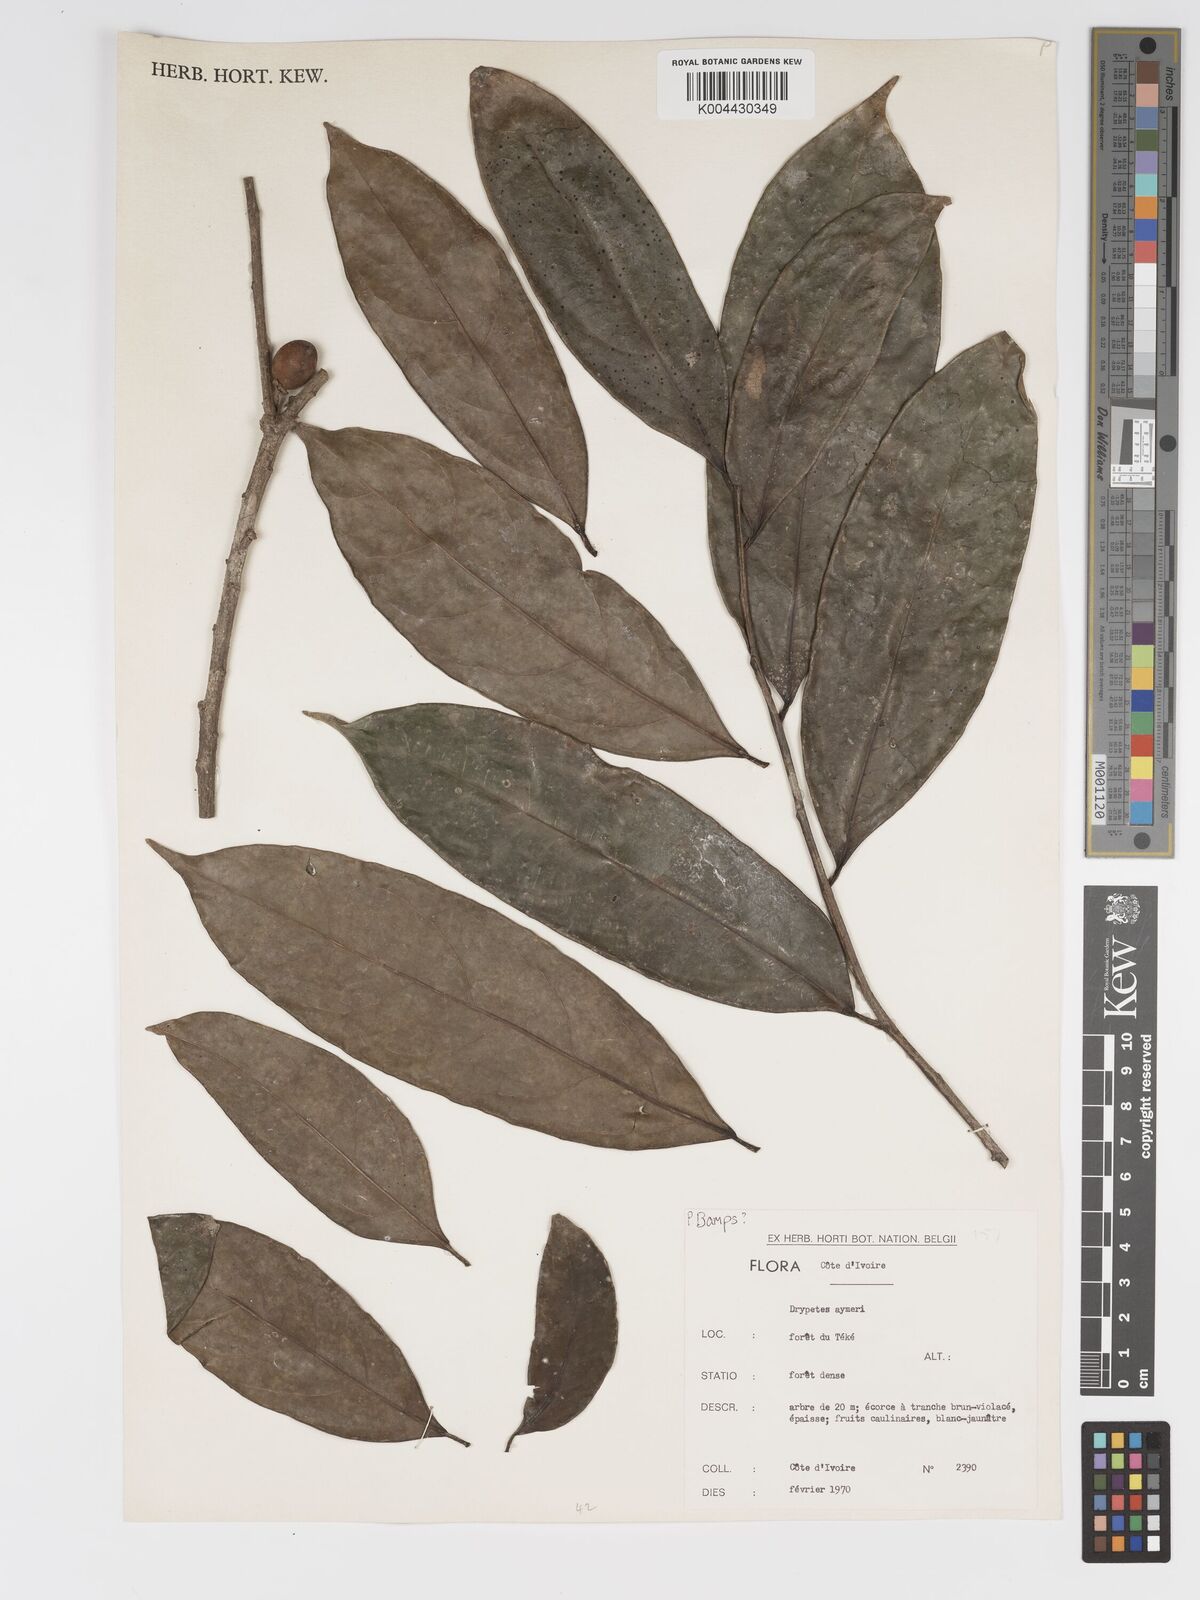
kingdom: Plantae
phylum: Tracheophyta
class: Magnoliopsida
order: Malpighiales
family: Putranjivaceae
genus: Drypetes
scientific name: Drypetes aylmeri
